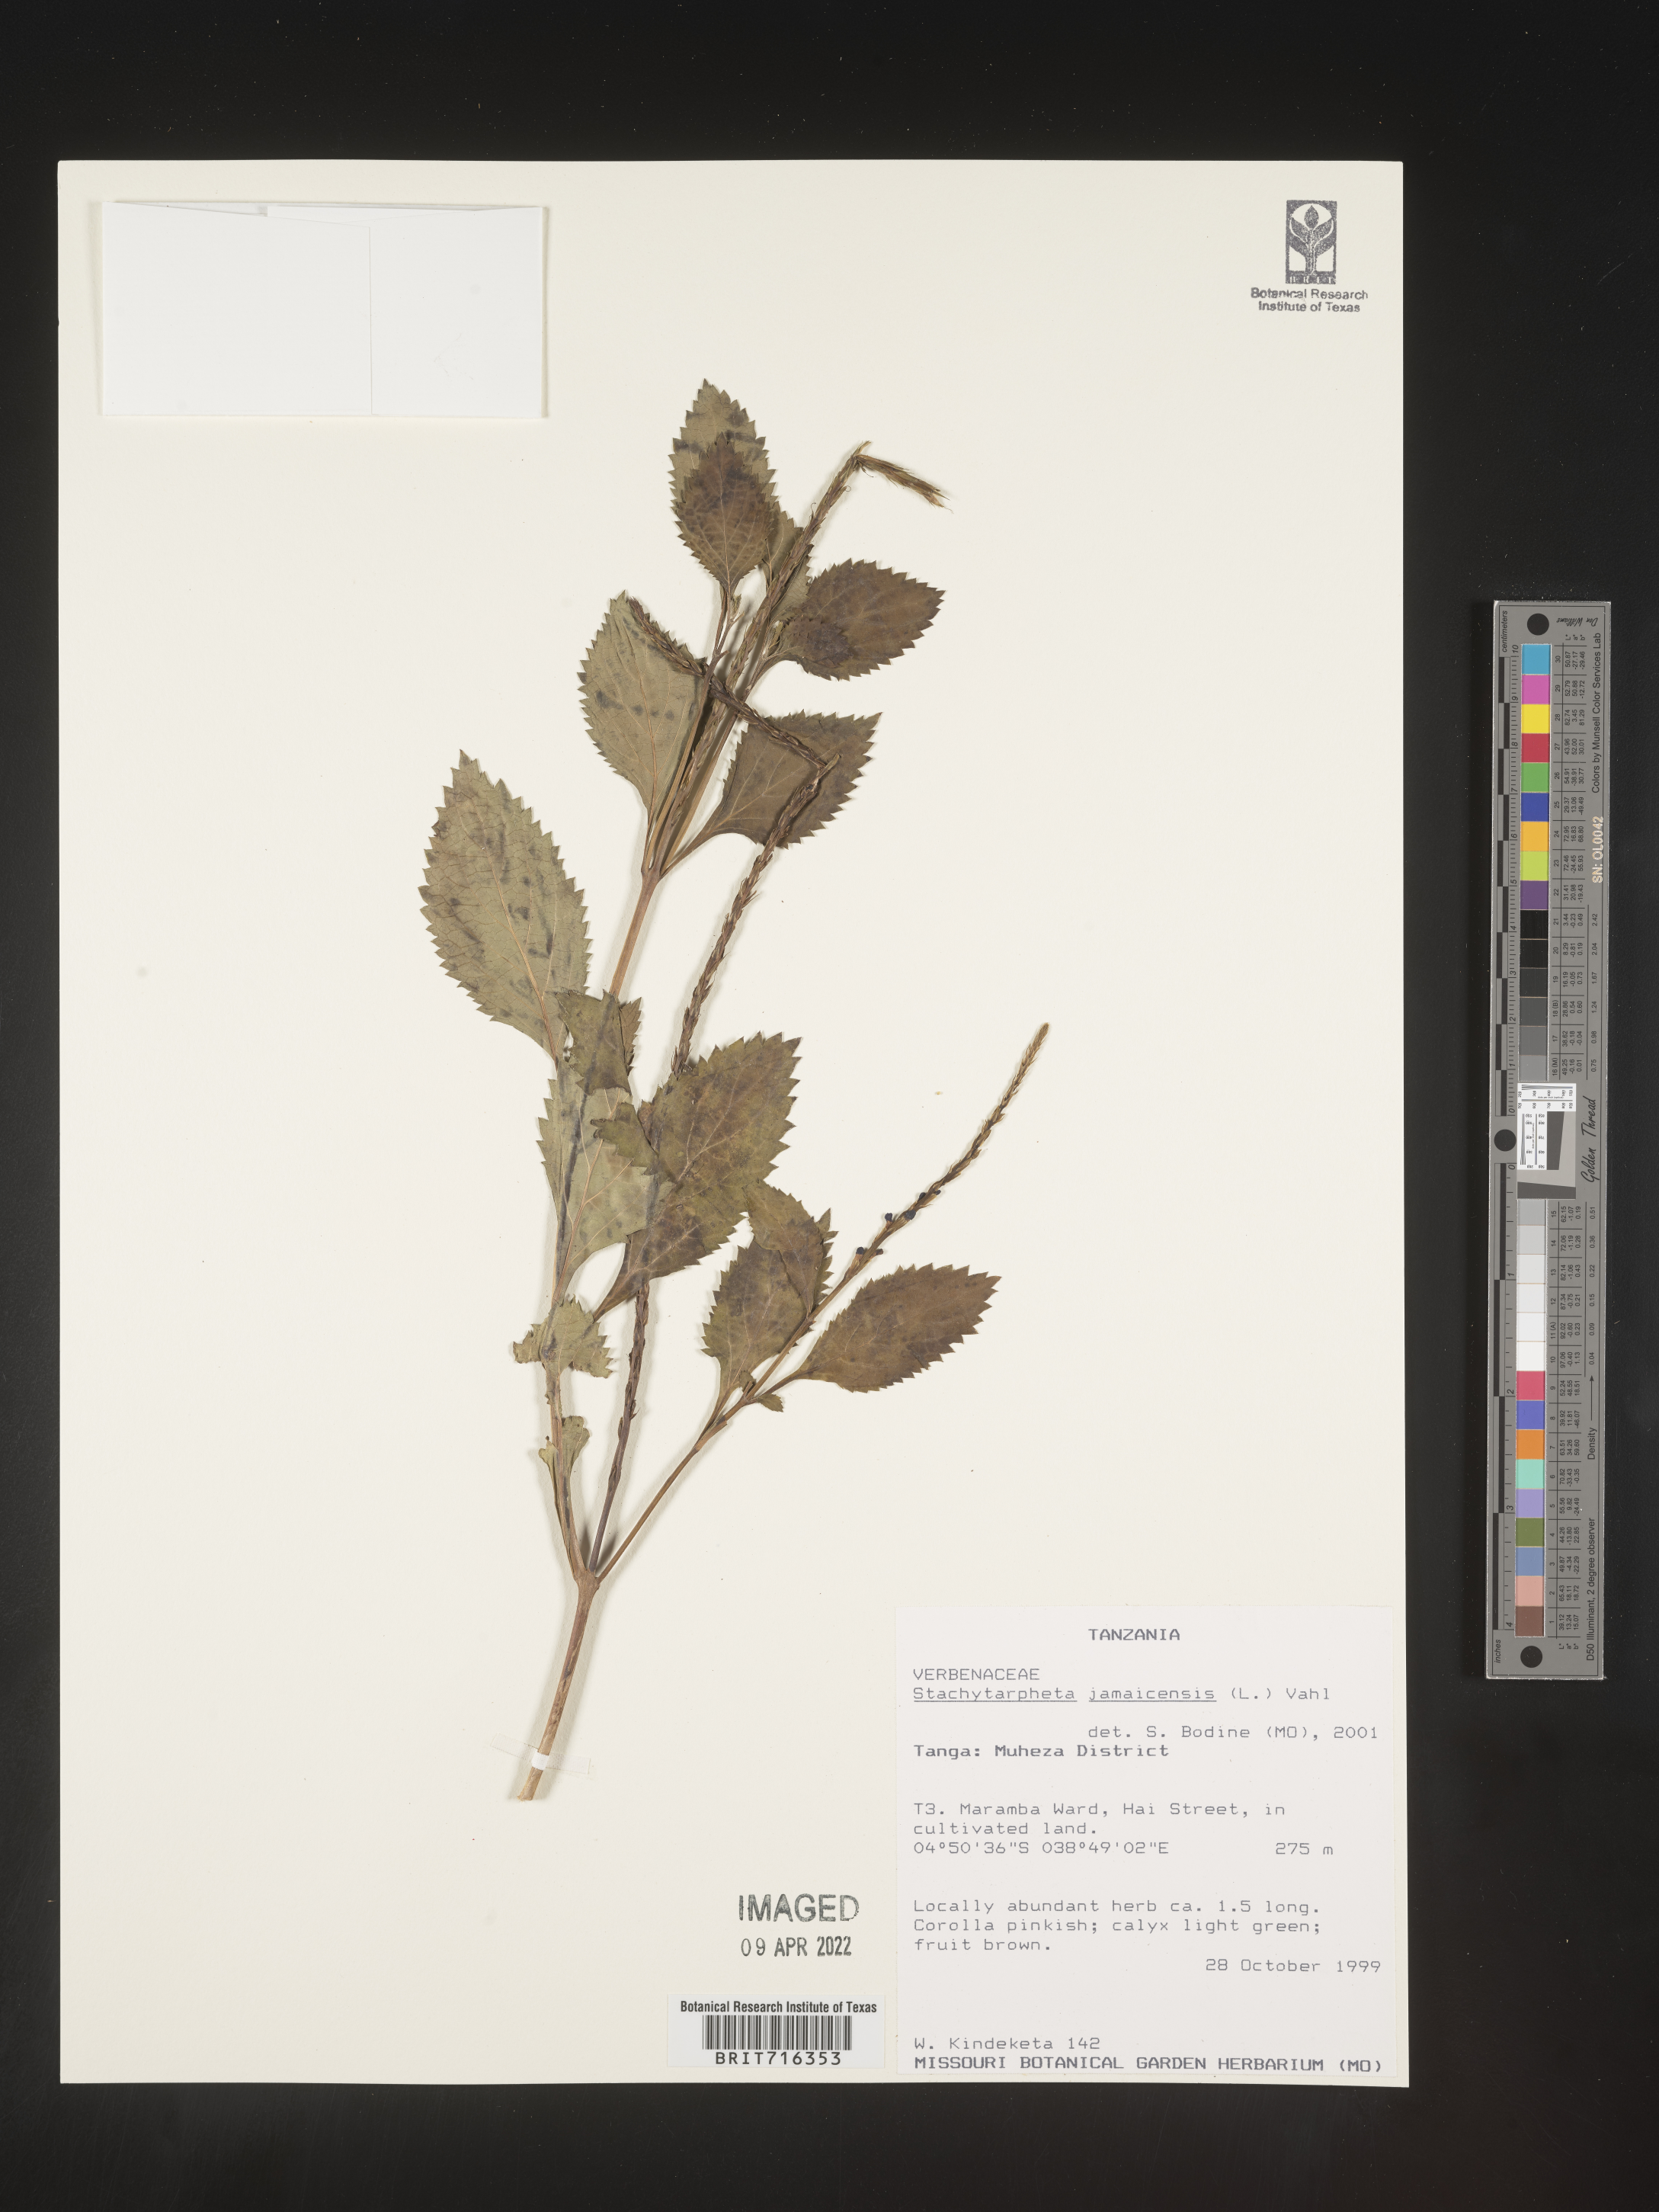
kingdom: Plantae
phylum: Tracheophyta
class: Magnoliopsida
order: Lamiales
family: Verbenaceae
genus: Stachytarpheta
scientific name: Stachytarpheta
